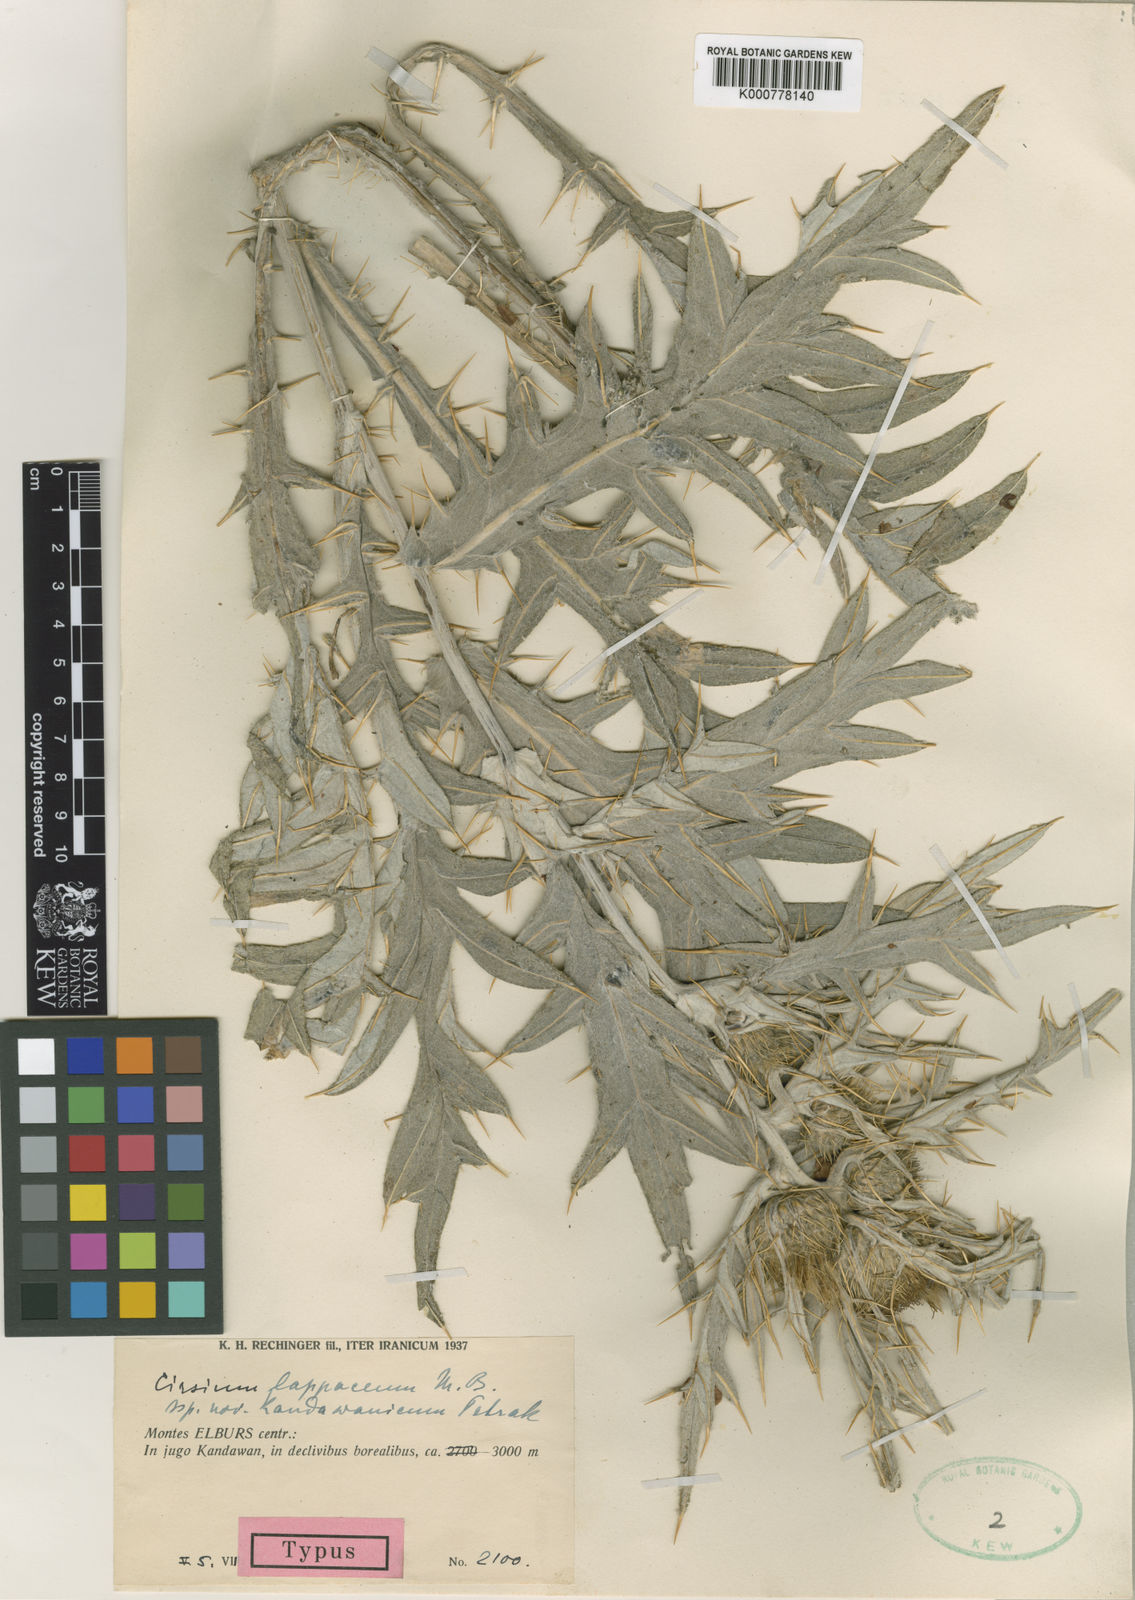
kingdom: Plantae
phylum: Tracheophyta
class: Magnoliopsida
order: Asterales
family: Asteraceae
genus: Cirsium
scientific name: Cirsium
